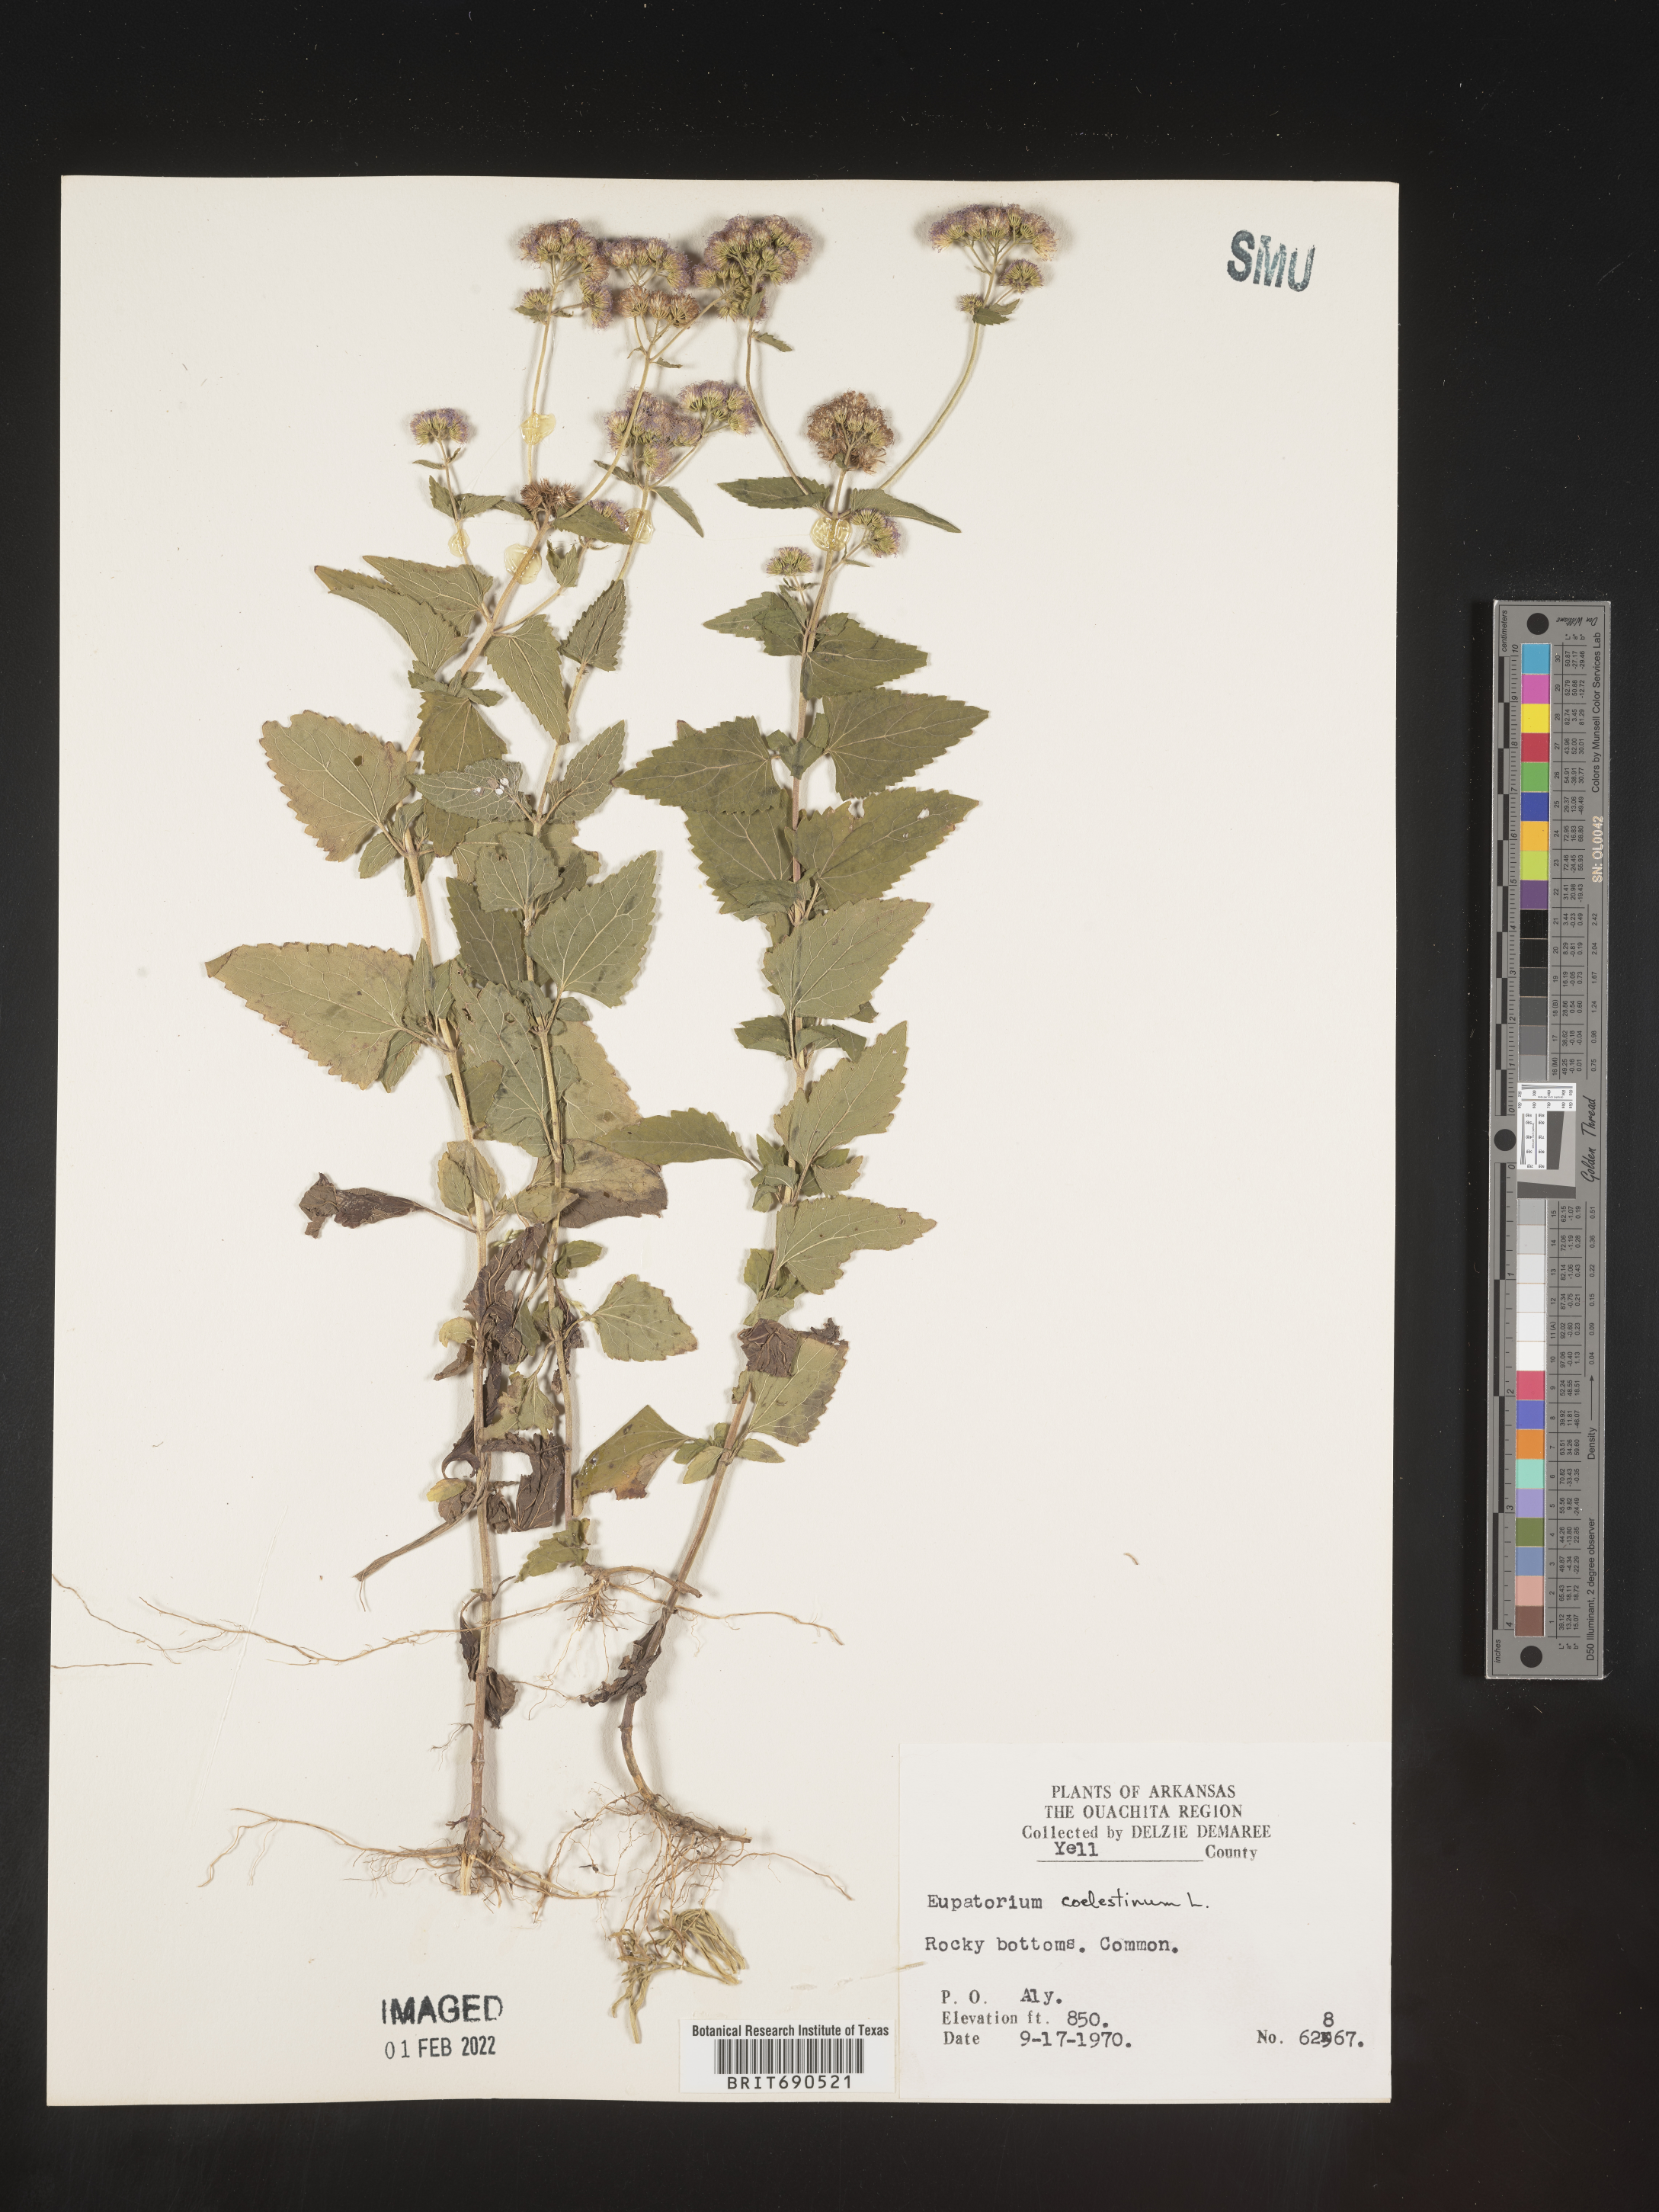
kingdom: Plantae
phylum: Tracheophyta
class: Magnoliopsida
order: Asterales
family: Asteraceae
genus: Conoclinium
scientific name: Conoclinium coelestinum
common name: Blue mistflower
